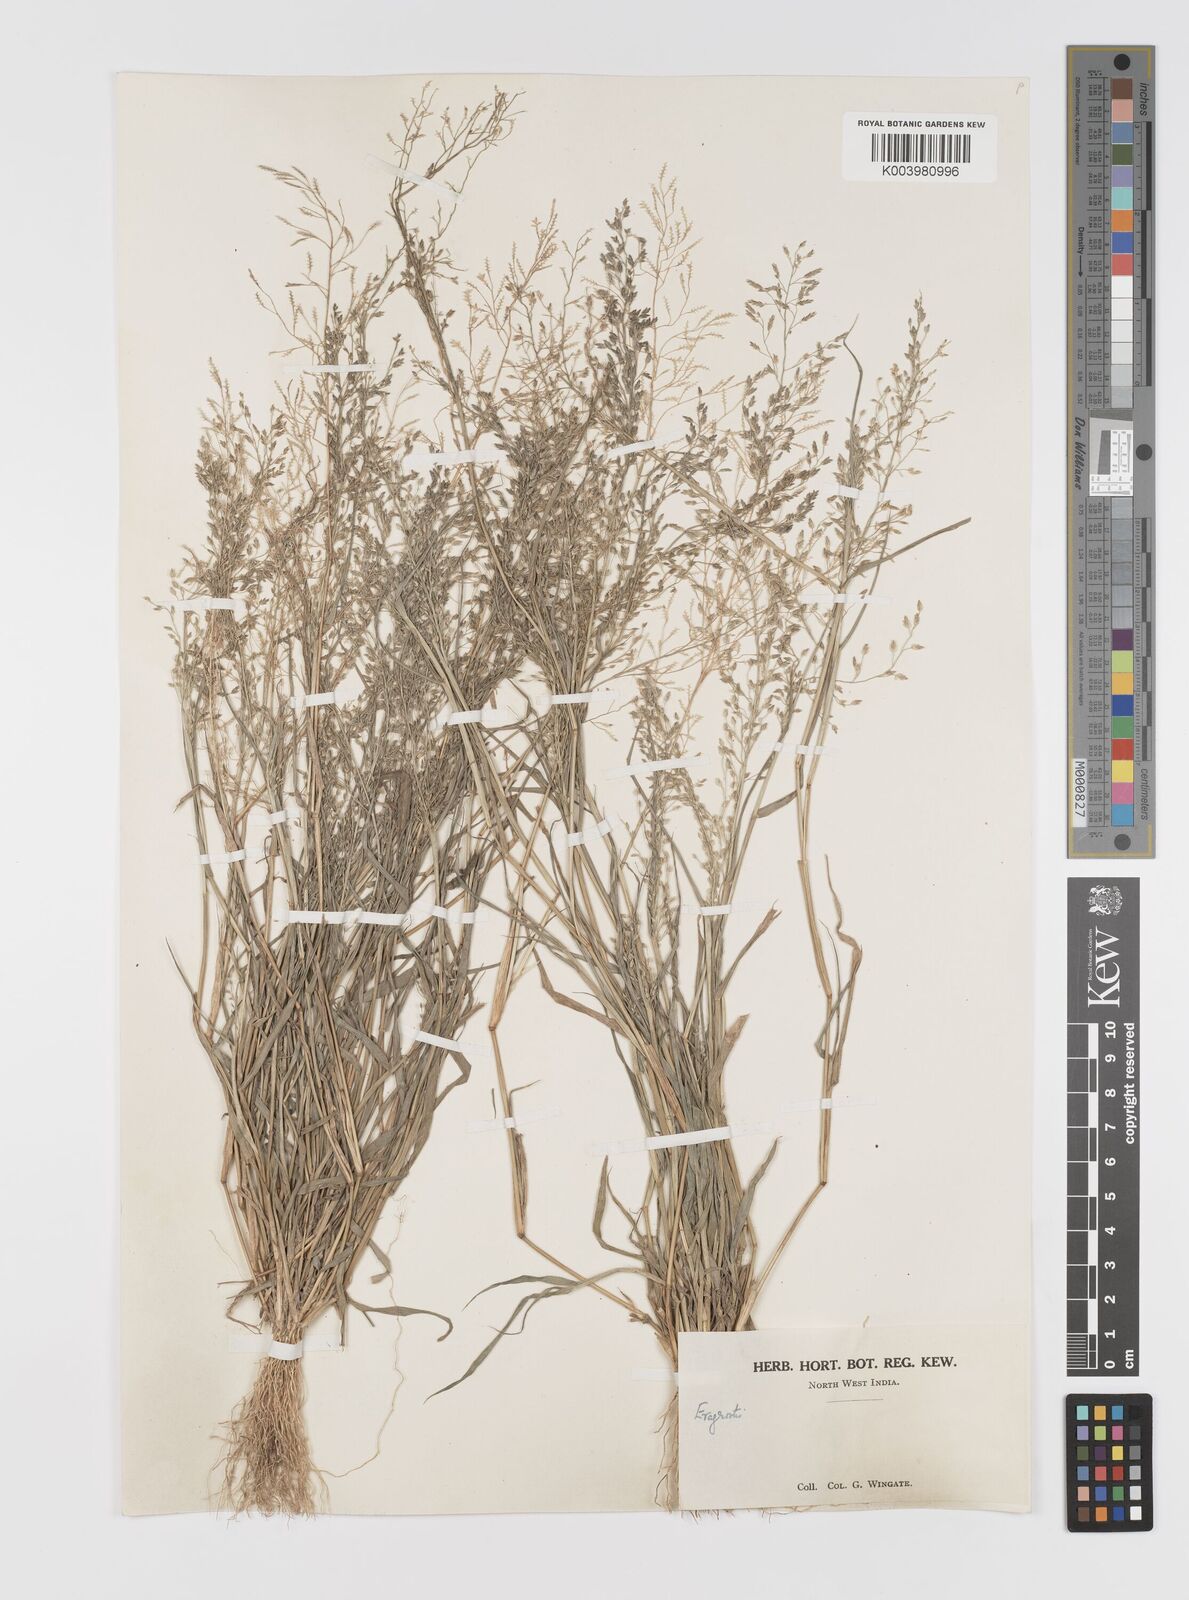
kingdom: Plantae
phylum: Tracheophyta
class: Liliopsida
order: Poales
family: Poaceae
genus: Eragrostis
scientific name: Eragrostis minor
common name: Small love-grass
